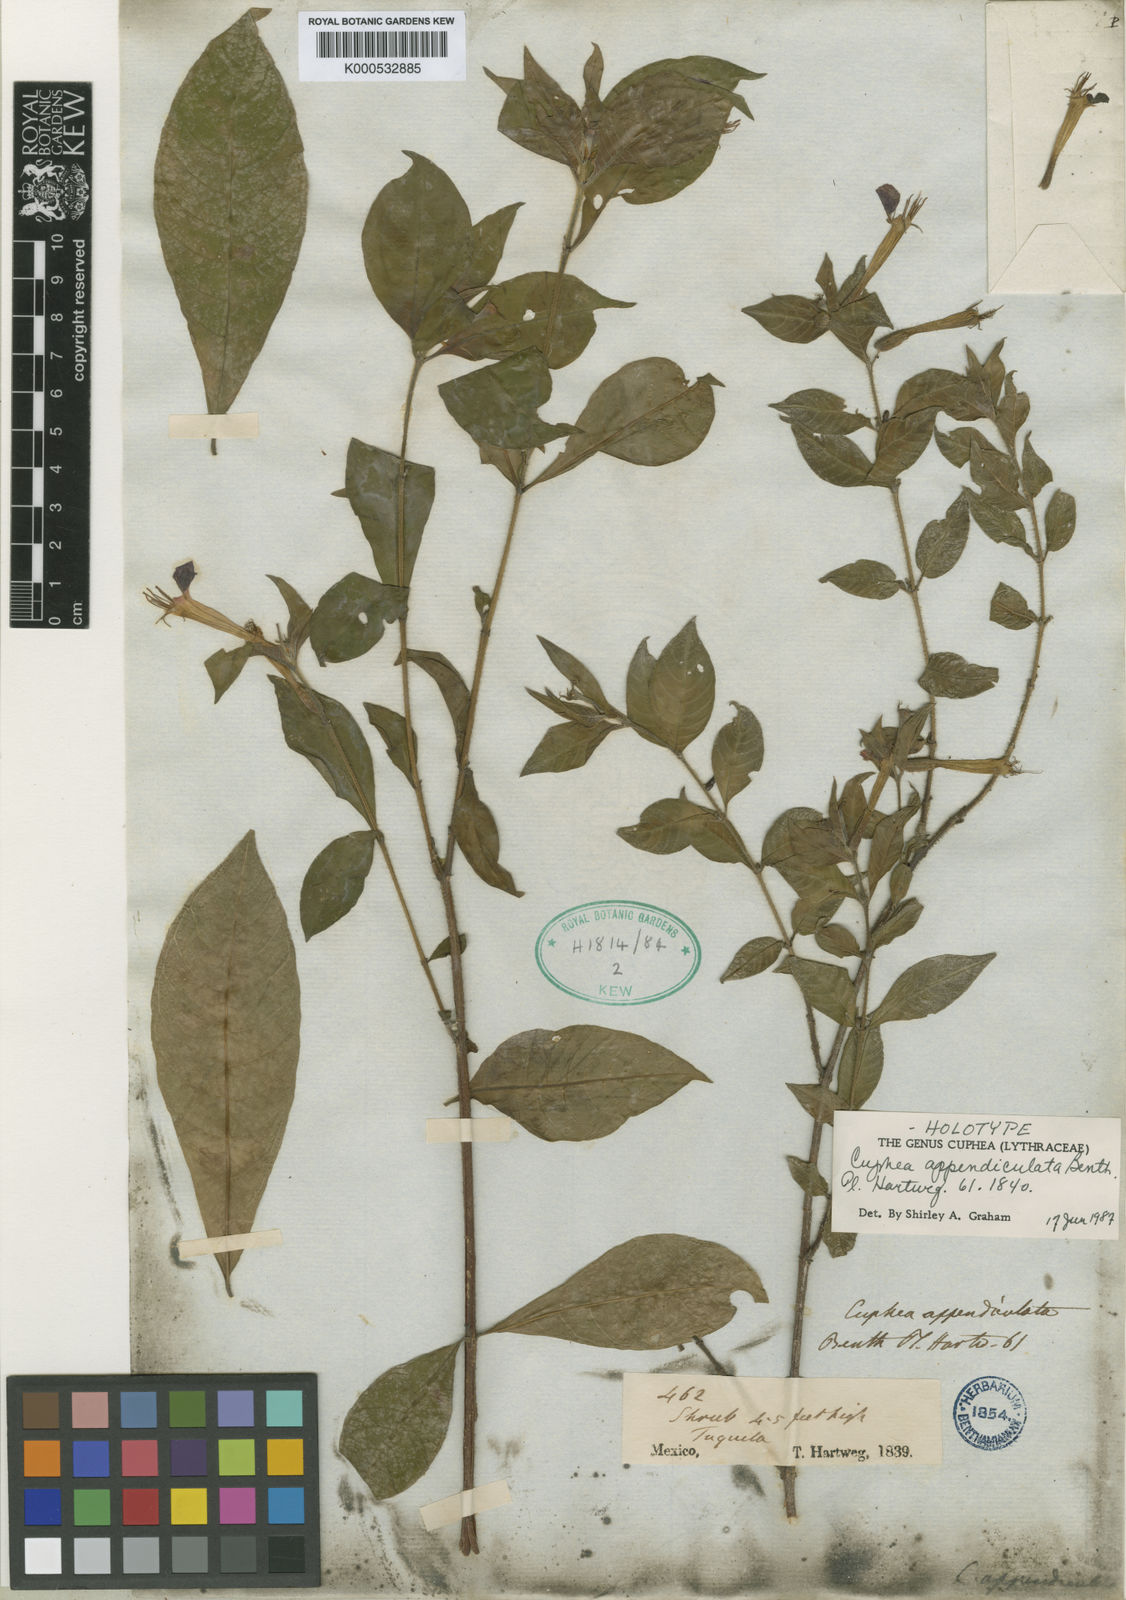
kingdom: Plantae
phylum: Tracheophyta
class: Magnoliopsida
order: Myrtales
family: Lythraceae
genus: Cuphea
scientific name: Cuphea appendiculata
